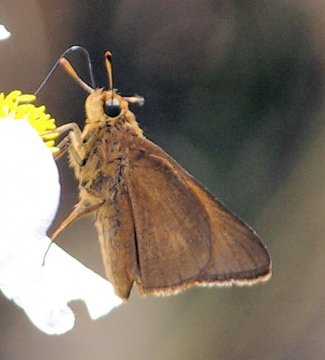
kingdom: Animalia
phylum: Arthropoda
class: Insecta
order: Lepidoptera
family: Hesperiidae
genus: Euphyes
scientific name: Euphyes pilatka
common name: Palatka Skipper
